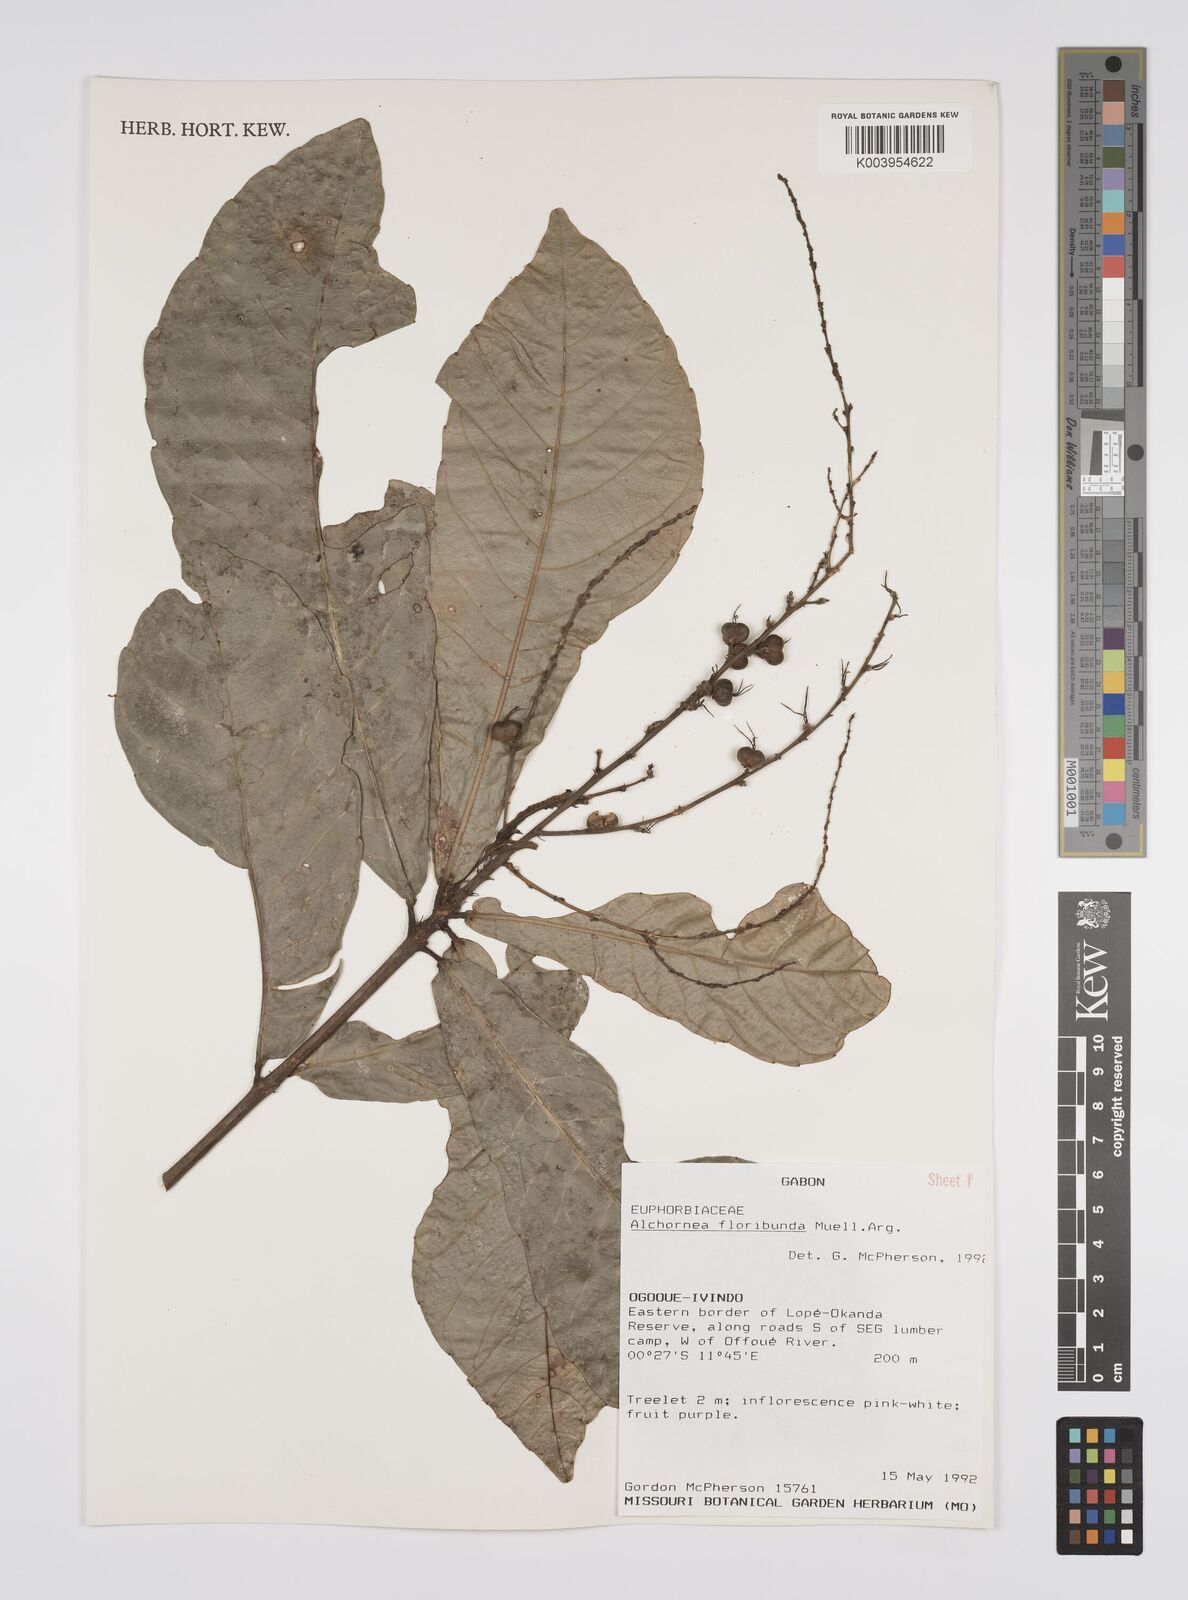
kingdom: Plantae
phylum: Tracheophyta
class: Magnoliopsida
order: Malpighiales
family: Euphorbiaceae
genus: Alchornea
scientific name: Alchornea floribunda
